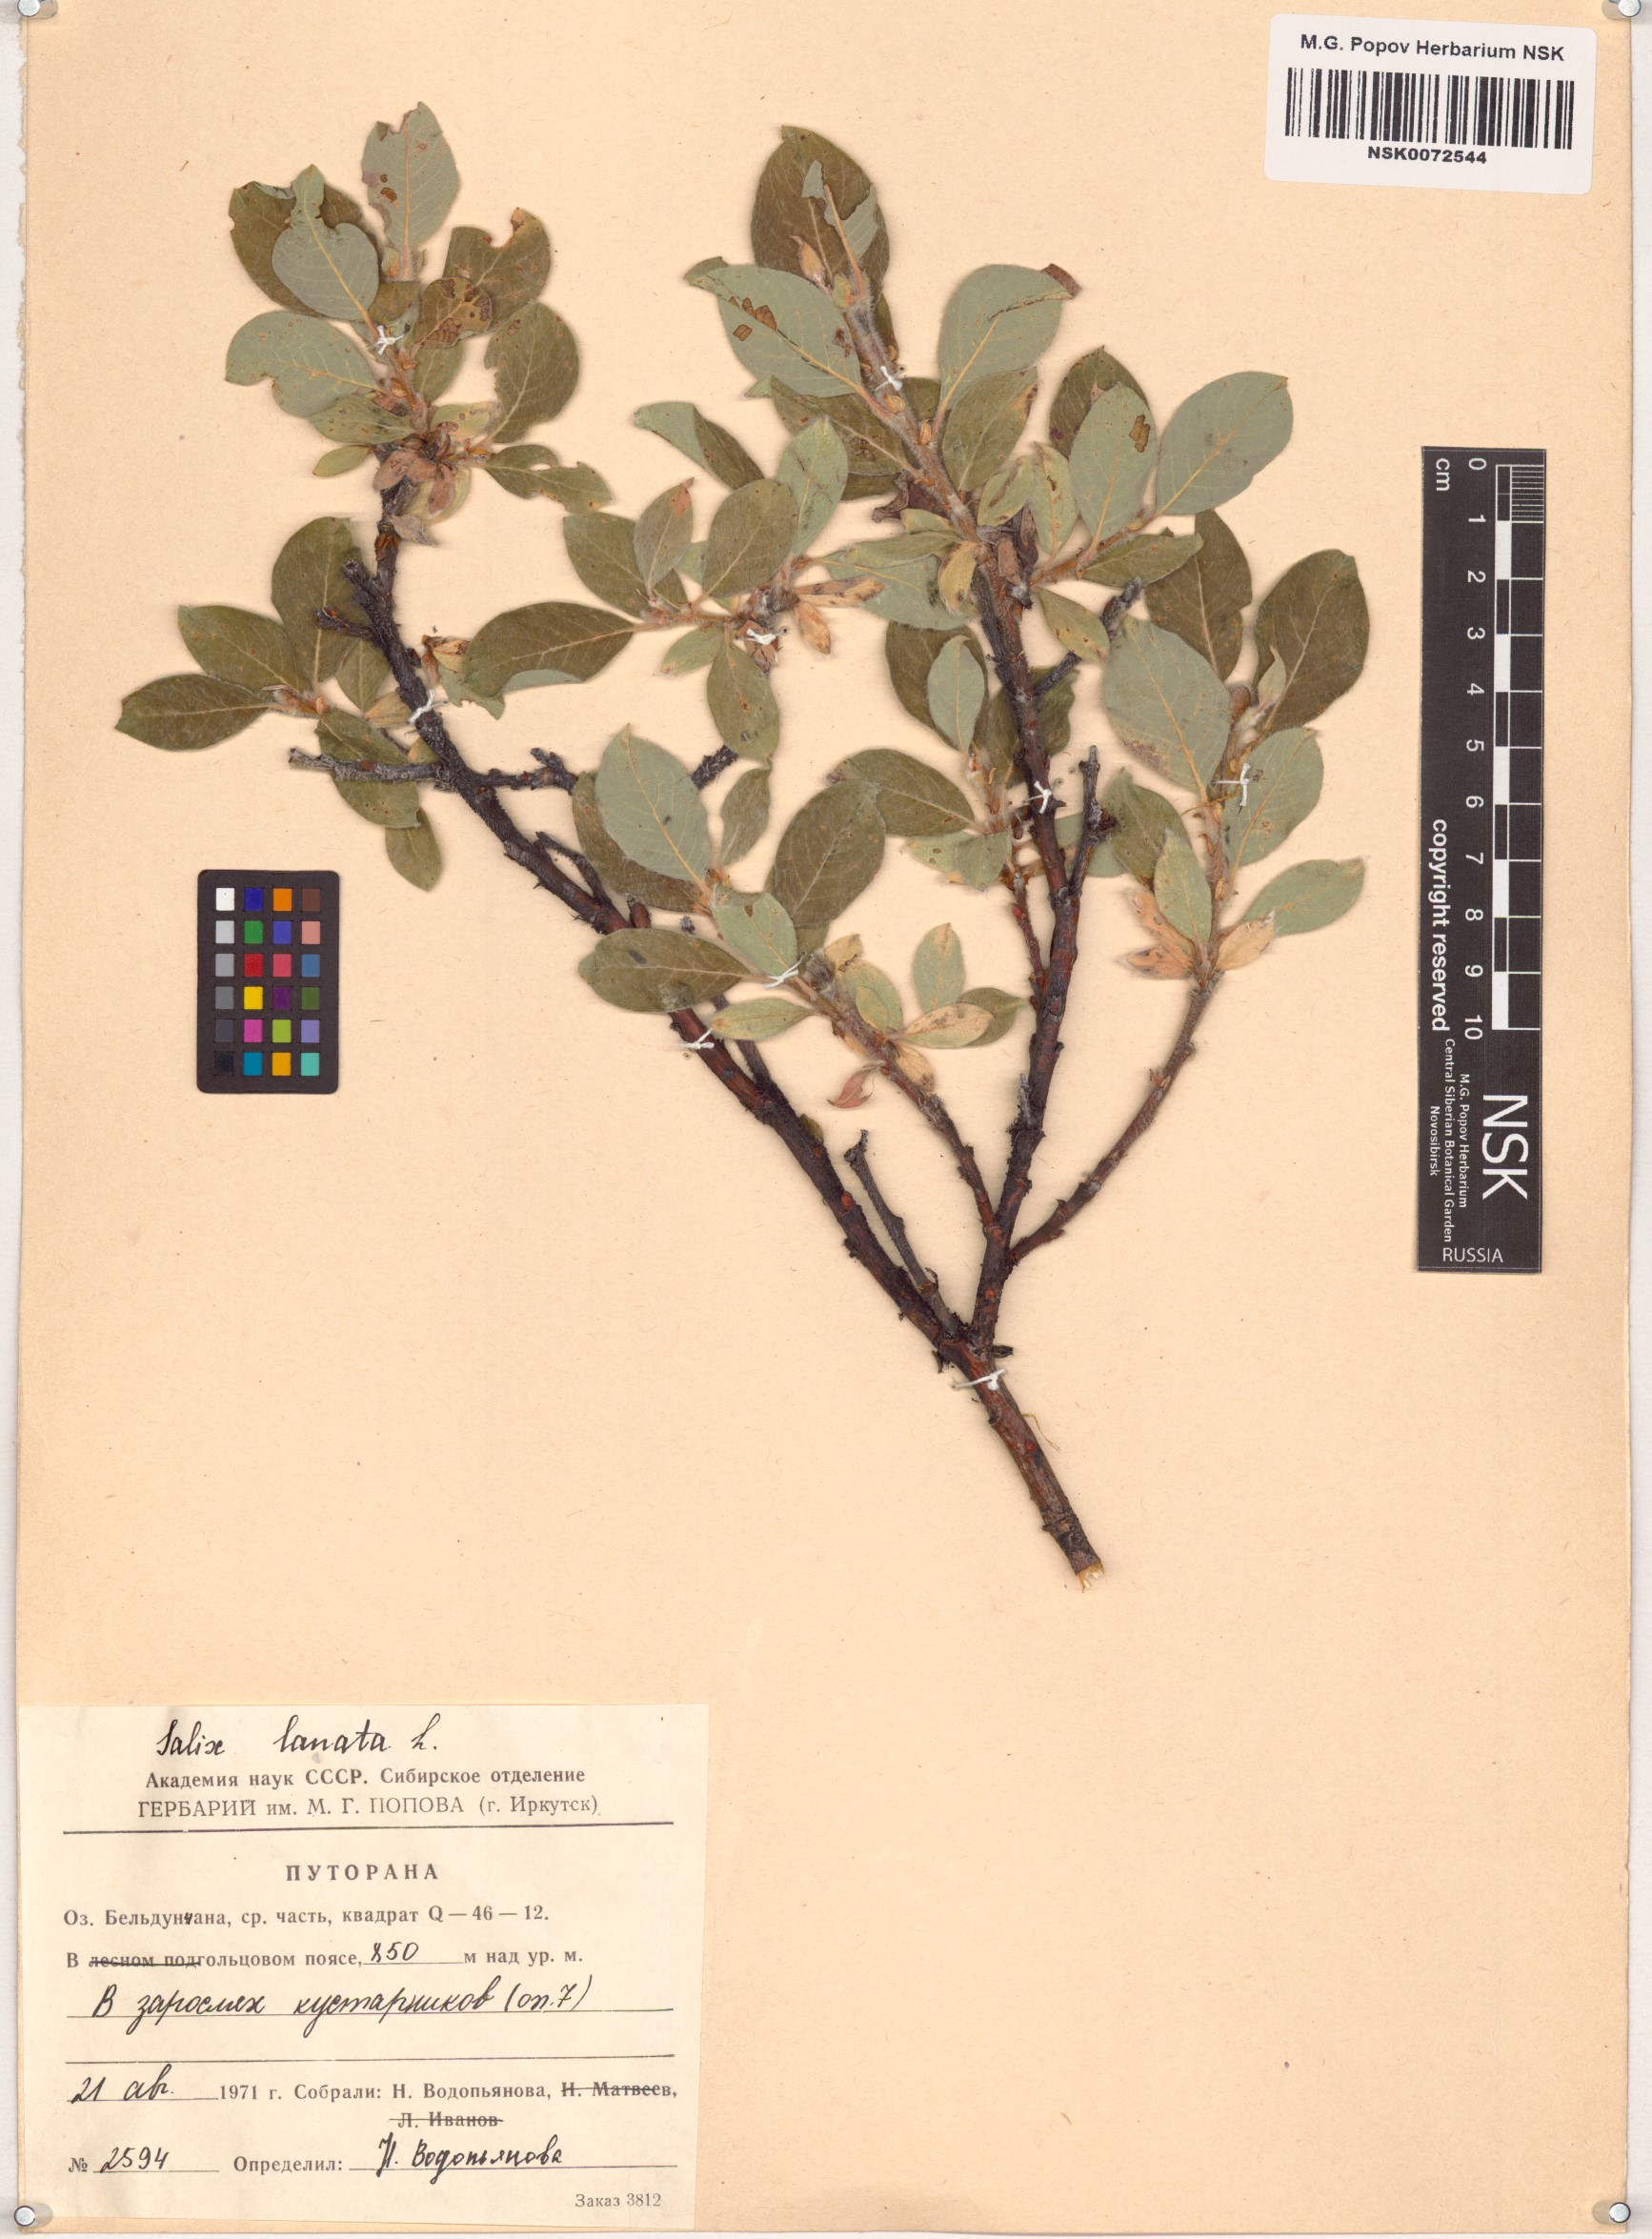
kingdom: Plantae
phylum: Tracheophyta
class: Magnoliopsida
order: Malpighiales
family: Salicaceae
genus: Salix
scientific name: Salix lanata
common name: Woolly willow
